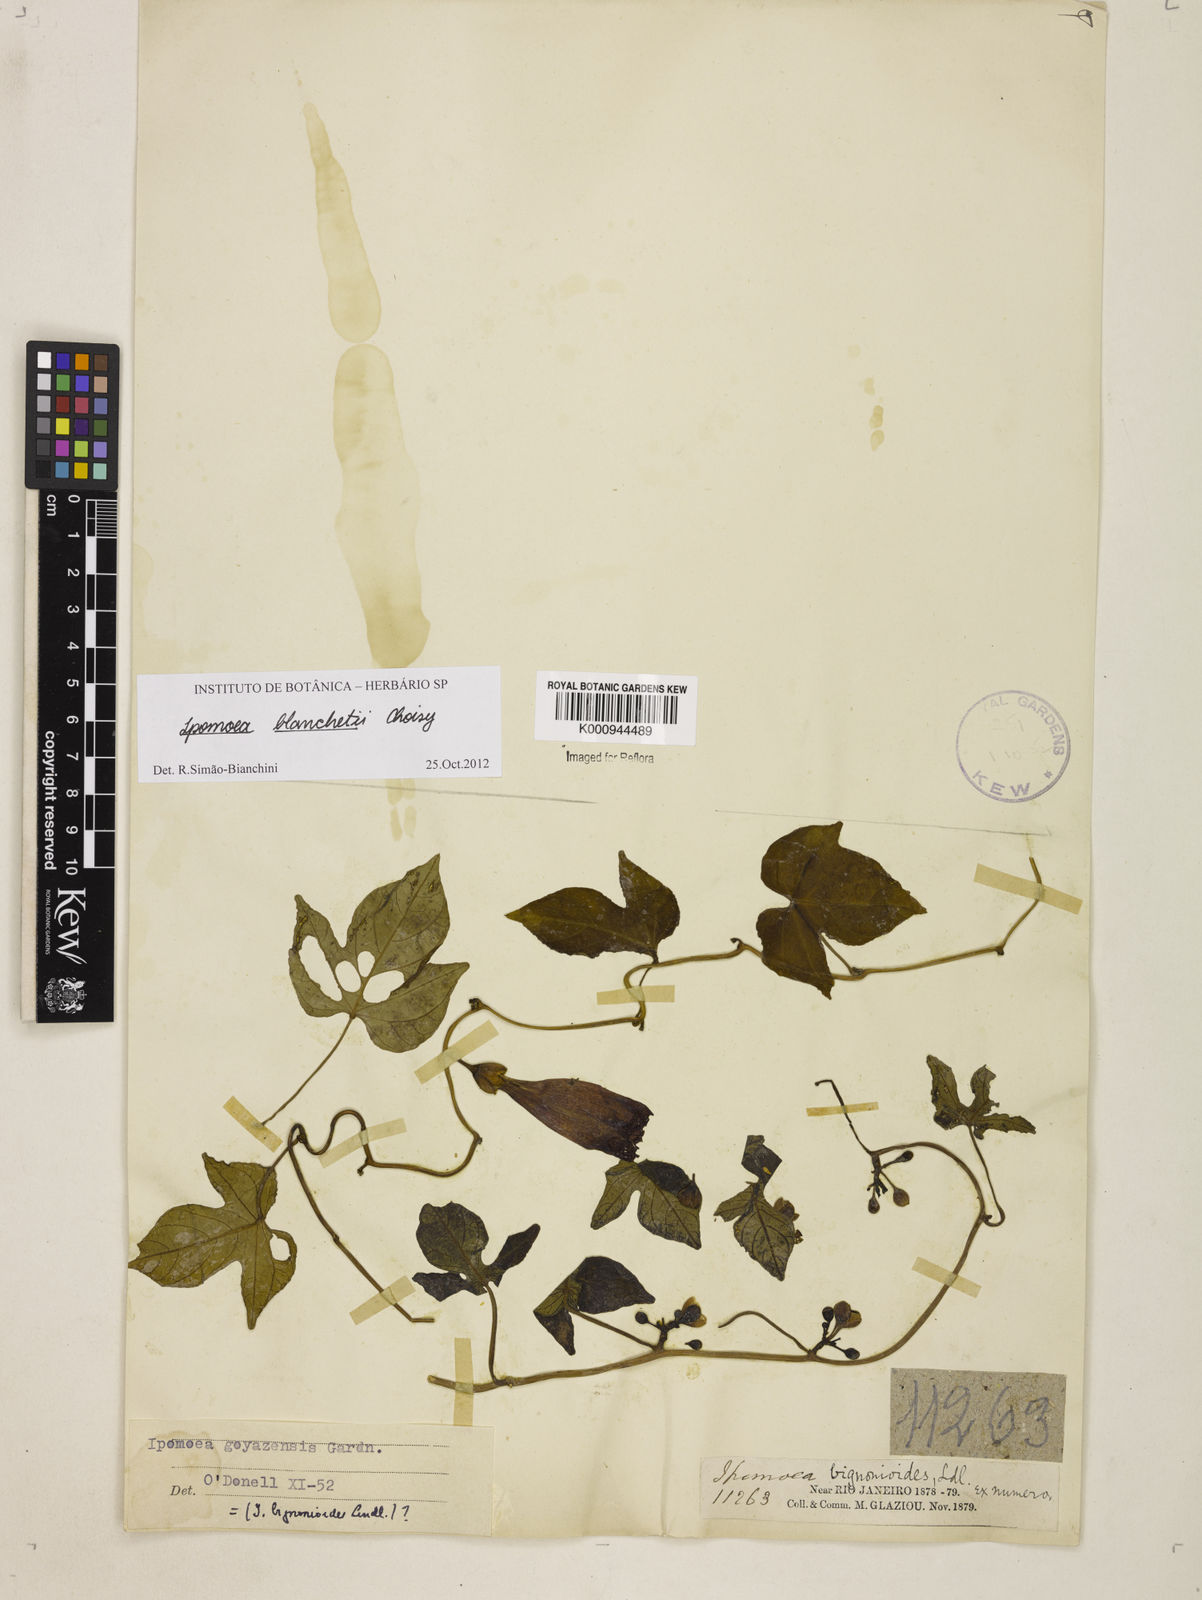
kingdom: Plantae
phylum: Tracheophyta
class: Magnoliopsida
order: Solanales
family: Convolvulaceae
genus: Ipomoea
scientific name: Ipomoea blanchetii
